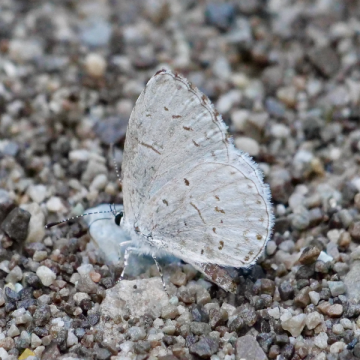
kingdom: Animalia
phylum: Arthropoda
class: Insecta
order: Lepidoptera
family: Lycaenidae
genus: Cyaniris
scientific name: Cyaniris neglecta
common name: Summer Azure
